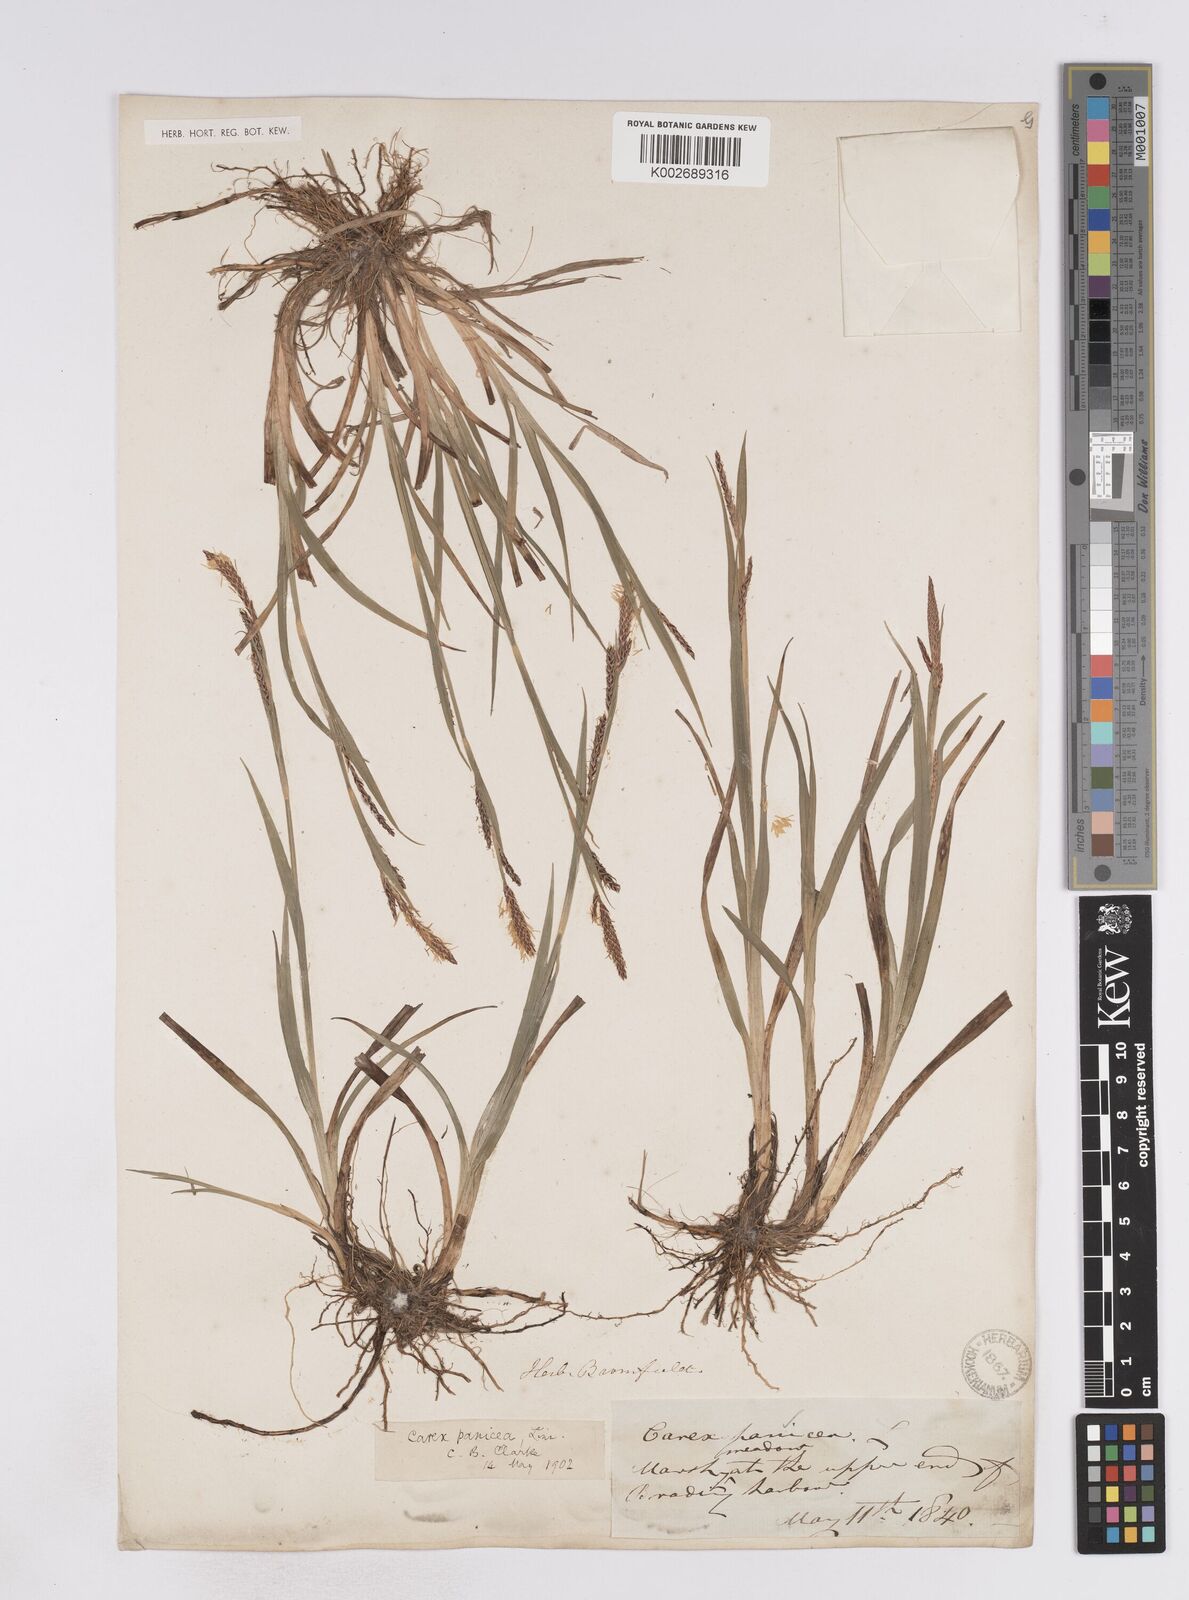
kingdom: Plantae
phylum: Tracheophyta
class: Liliopsida
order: Poales
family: Cyperaceae
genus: Carex
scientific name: Carex flacca
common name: Glaucous sedge
